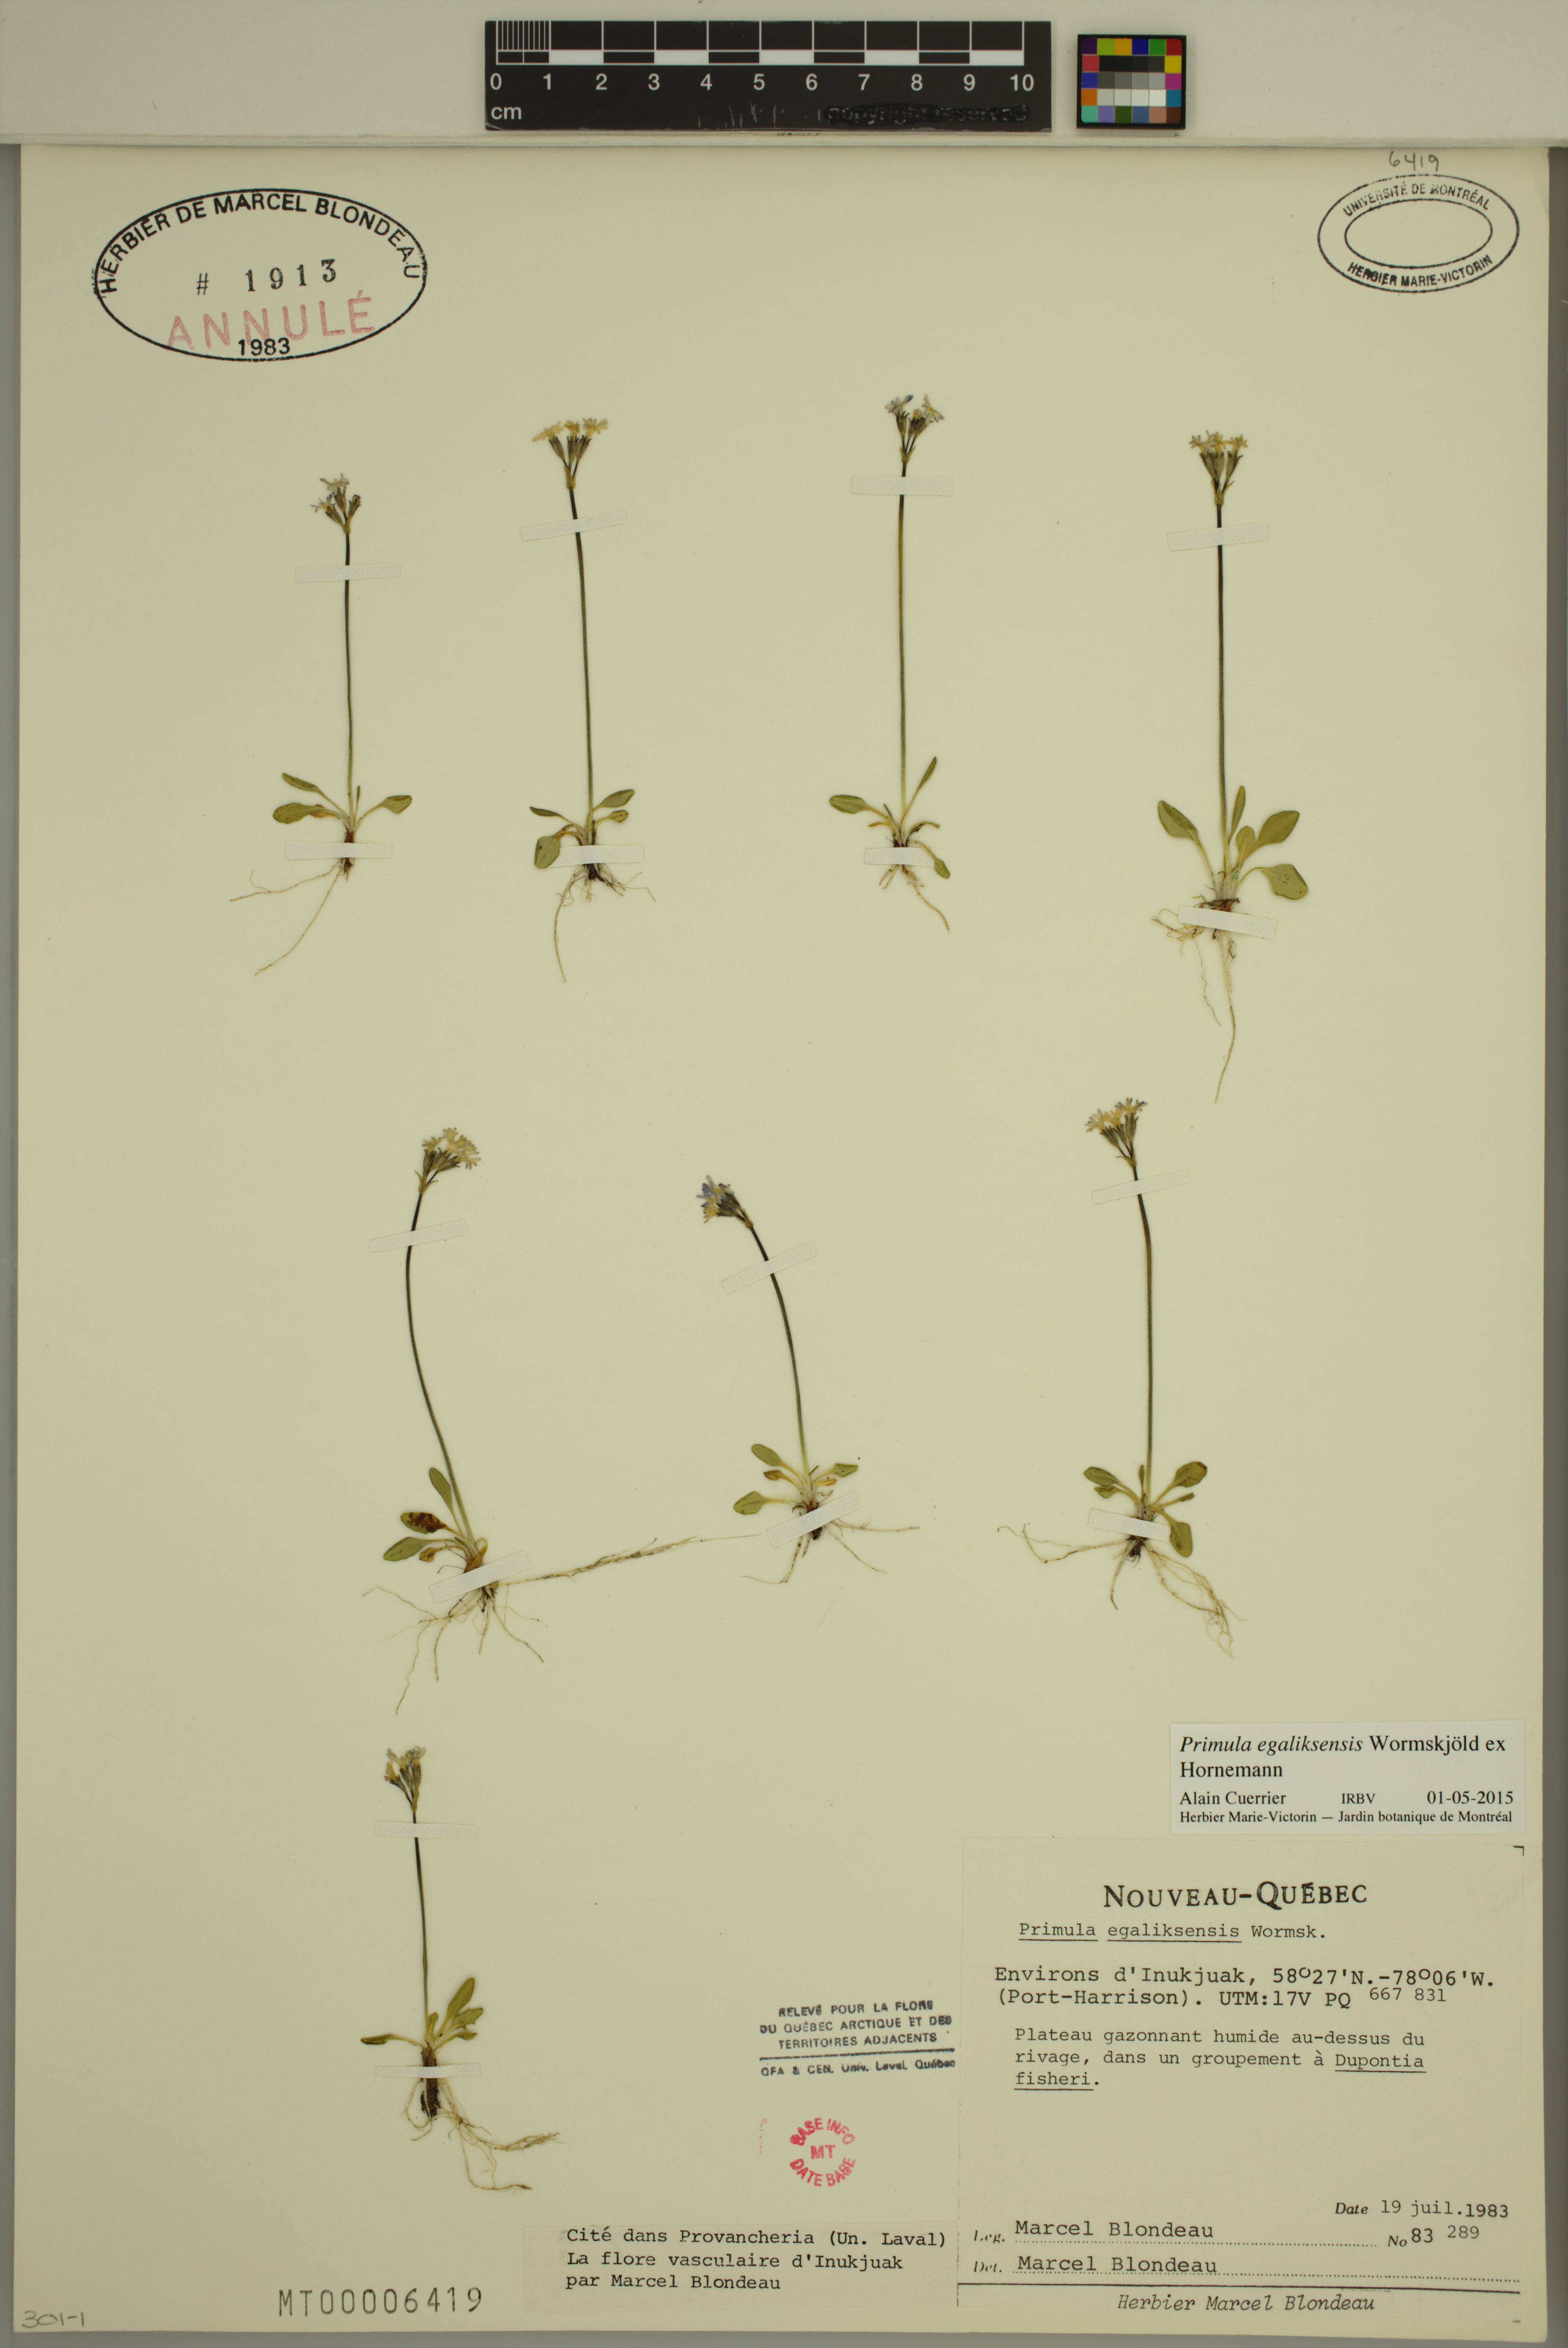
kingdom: Plantae
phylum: Tracheophyta
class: Magnoliopsida
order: Ericales
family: Primulaceae
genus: Primula
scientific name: Primula egaliksensis
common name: Greenland primrose
